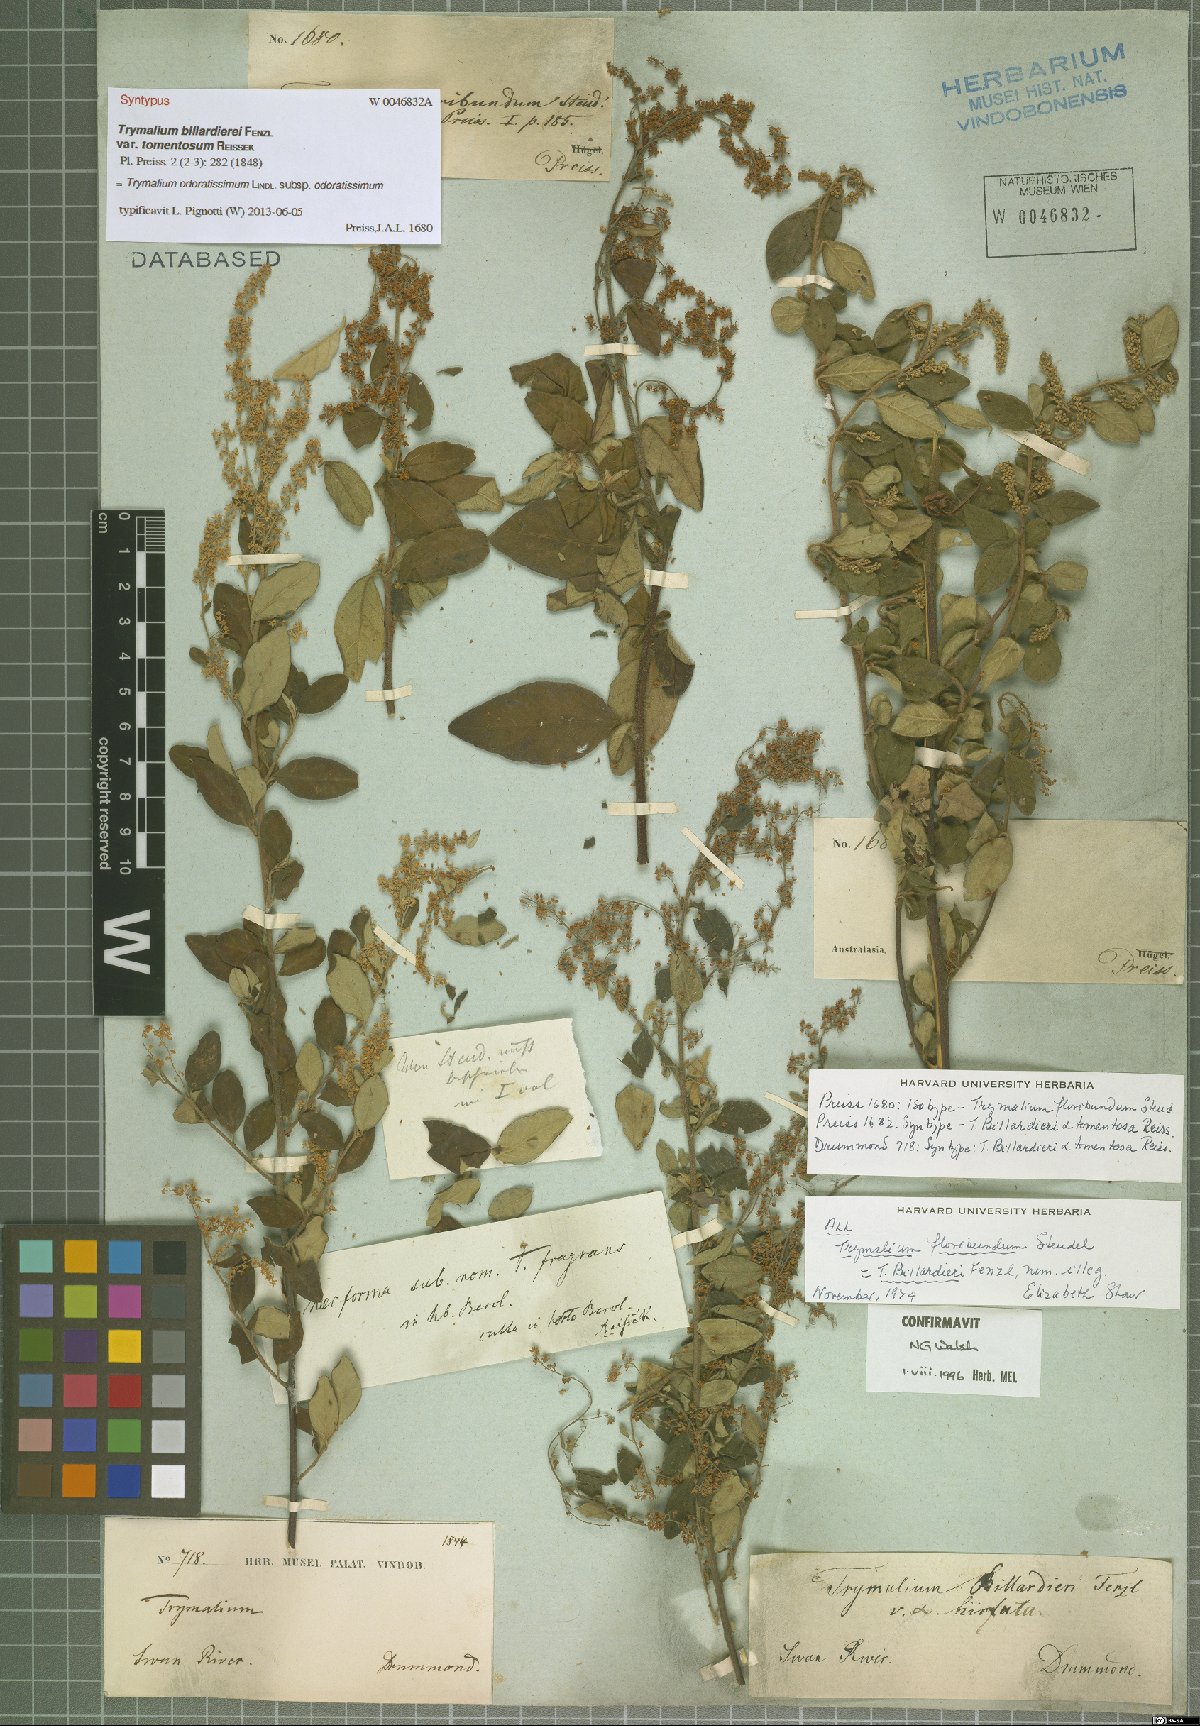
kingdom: Plantae
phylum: Tracheophyta
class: Magnoliopsida
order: Rosales
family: Rhamnaceae
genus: Trymalium
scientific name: Trymalium odoratissimum
